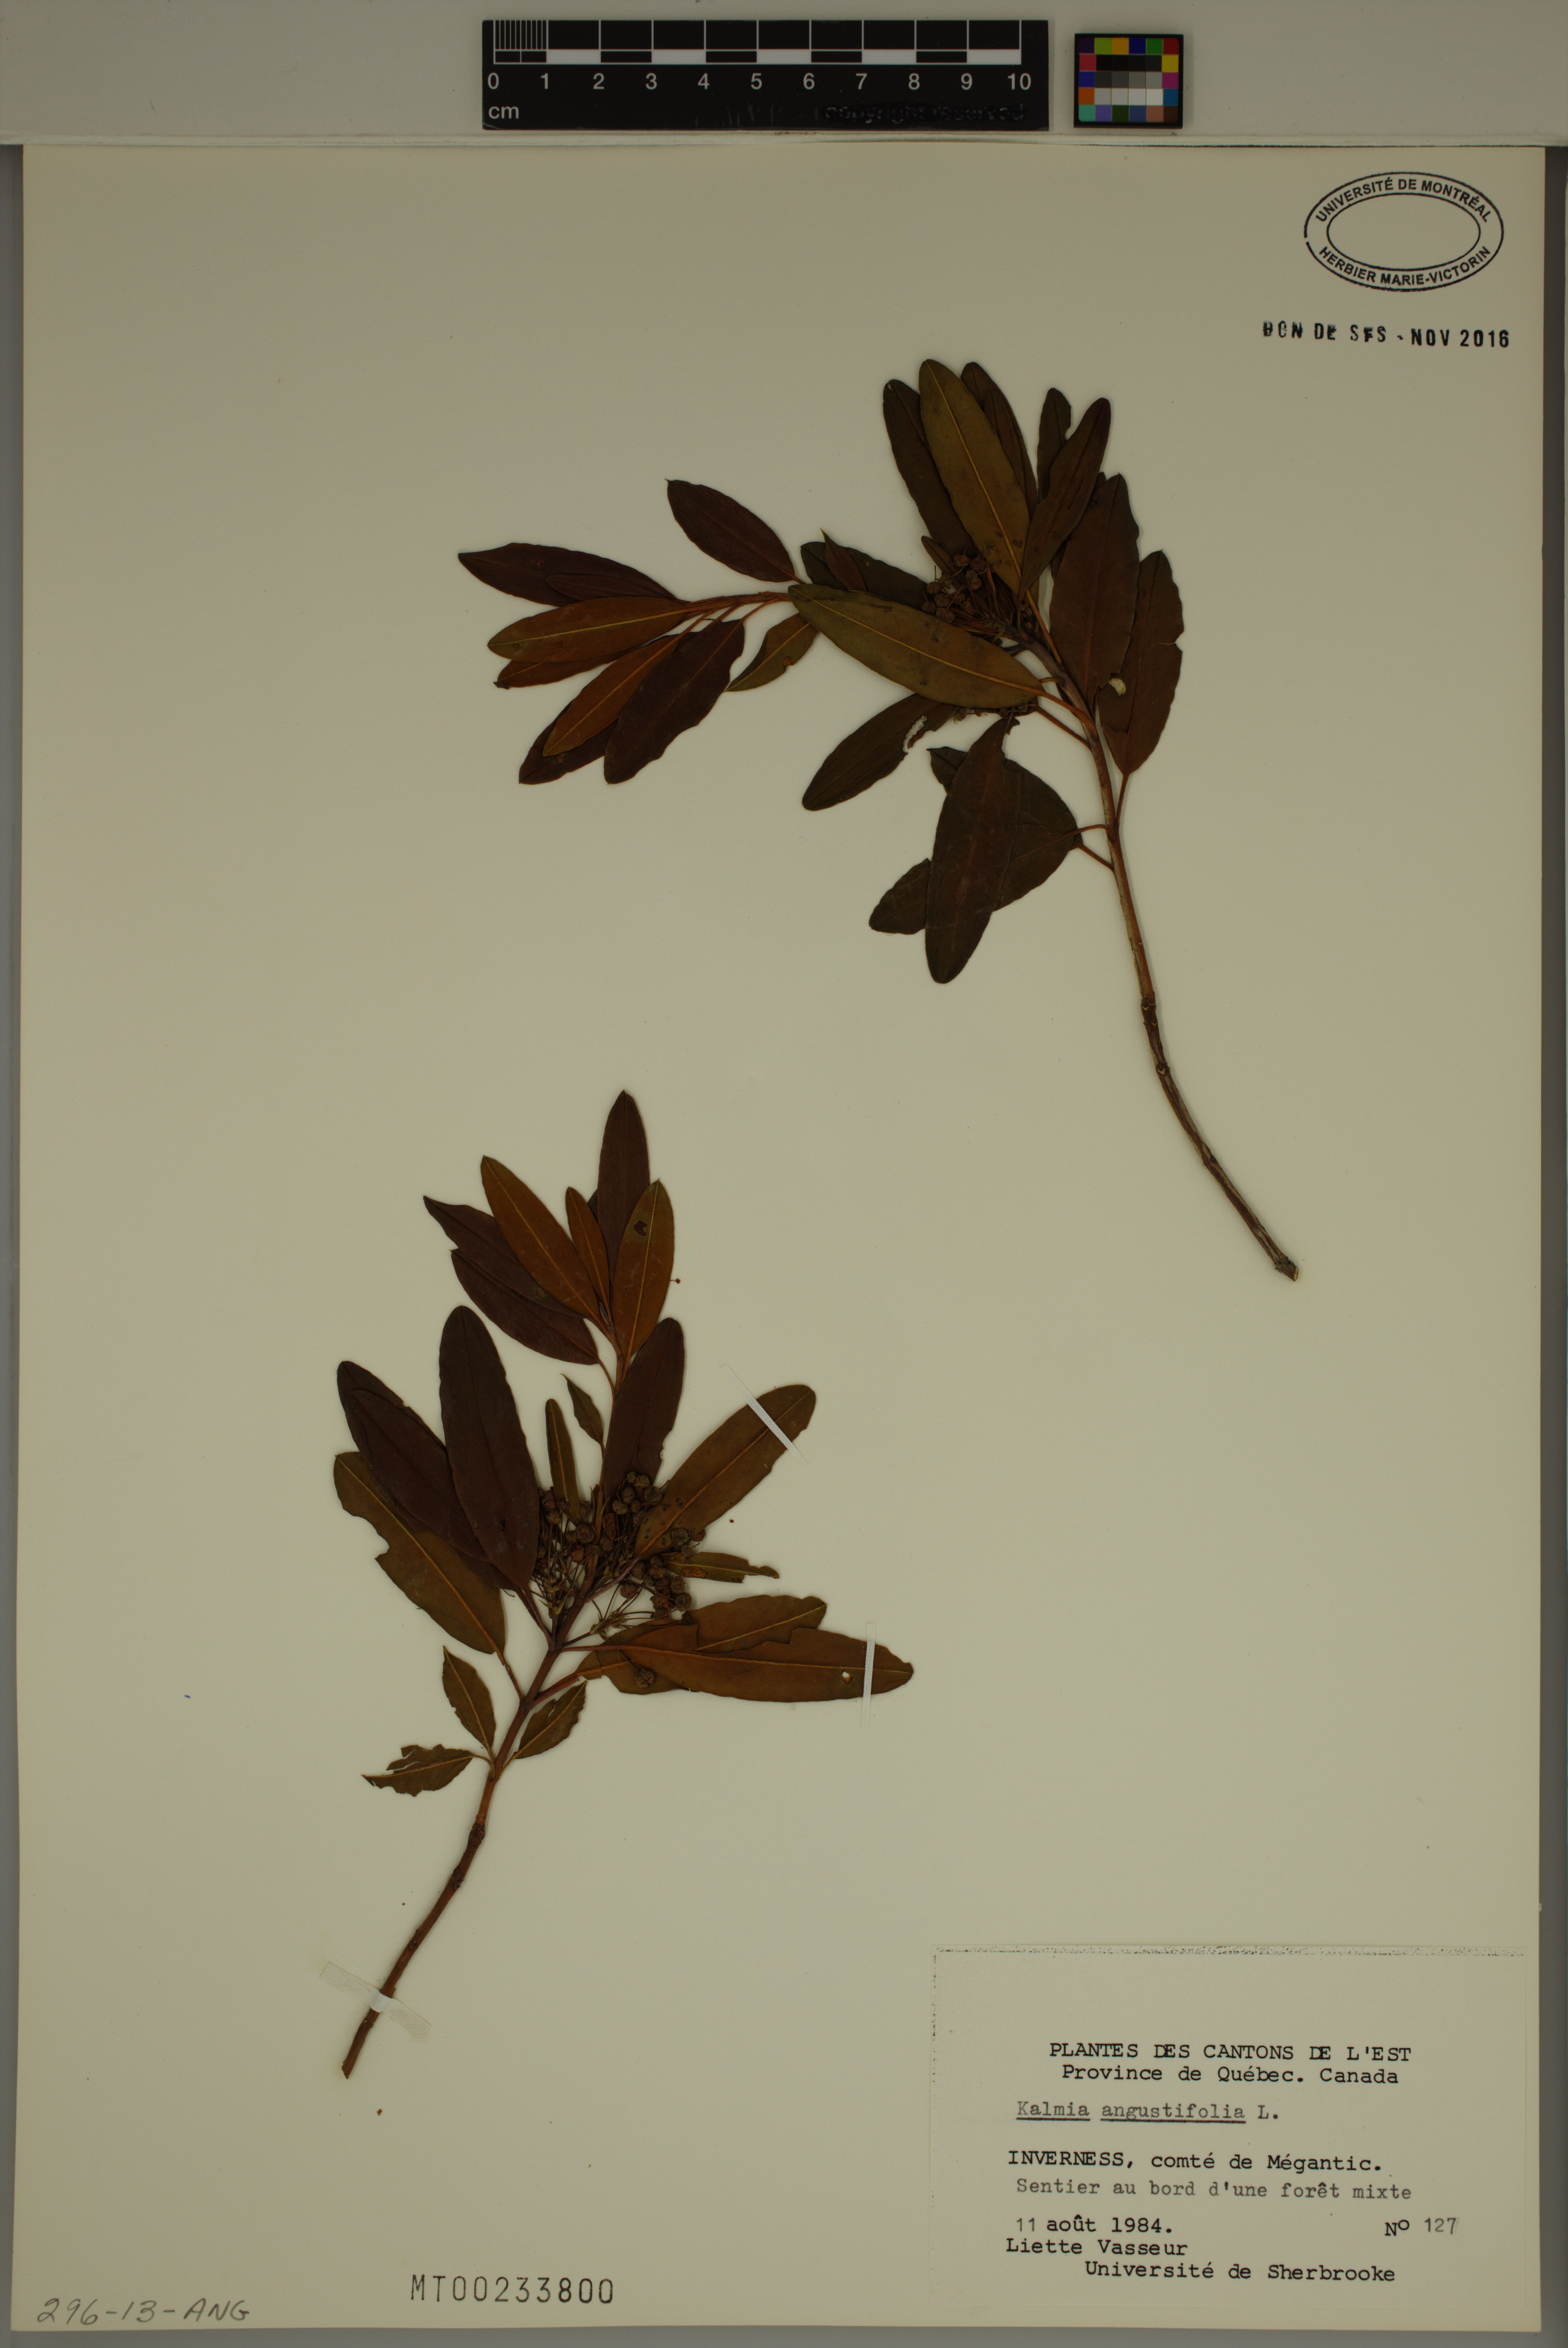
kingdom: Plantae
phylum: Tracheophyta
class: Magnoliopsida
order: Ericales
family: Ericaceae
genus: Kalmia
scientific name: Kalmia angustifolia
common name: Sheep-laurel
